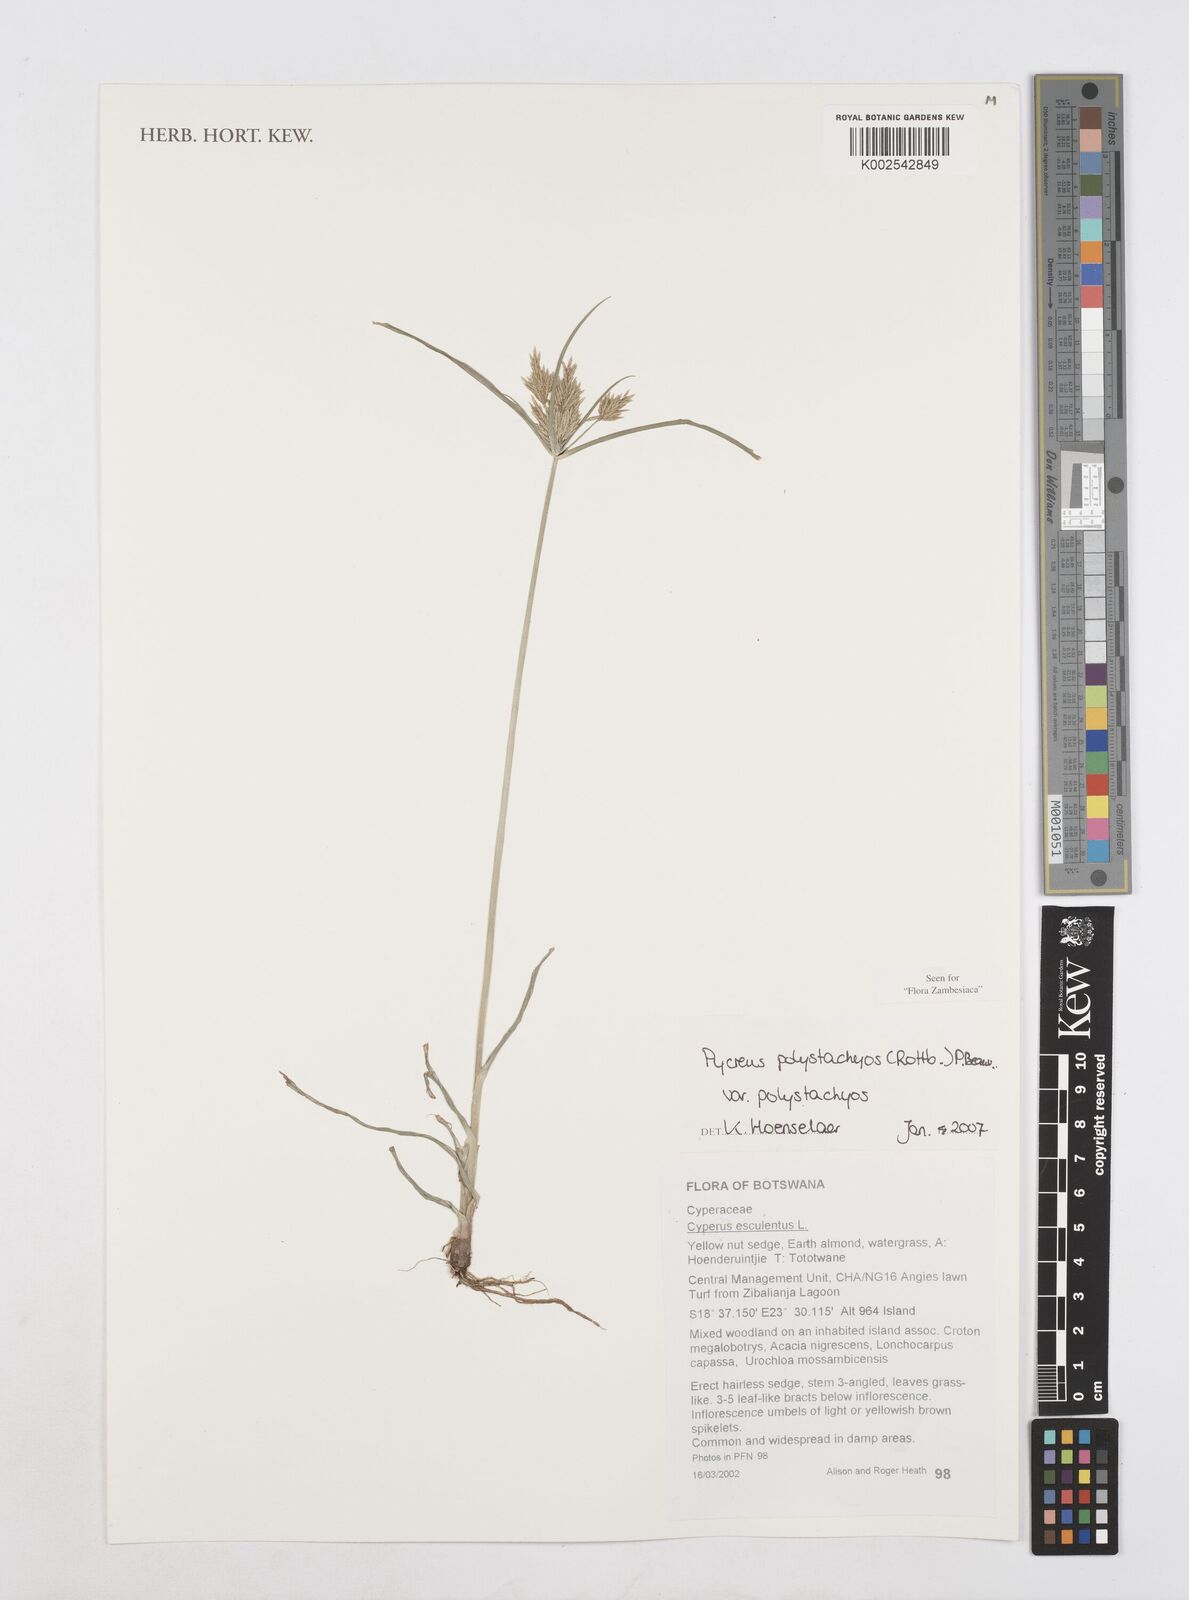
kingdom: Plantae
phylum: Tracheophyta
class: Liliopsida
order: Poales
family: Cyperaceae
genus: Cyperus
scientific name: Cyperus polystachyos
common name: Bunchy flat sedge
